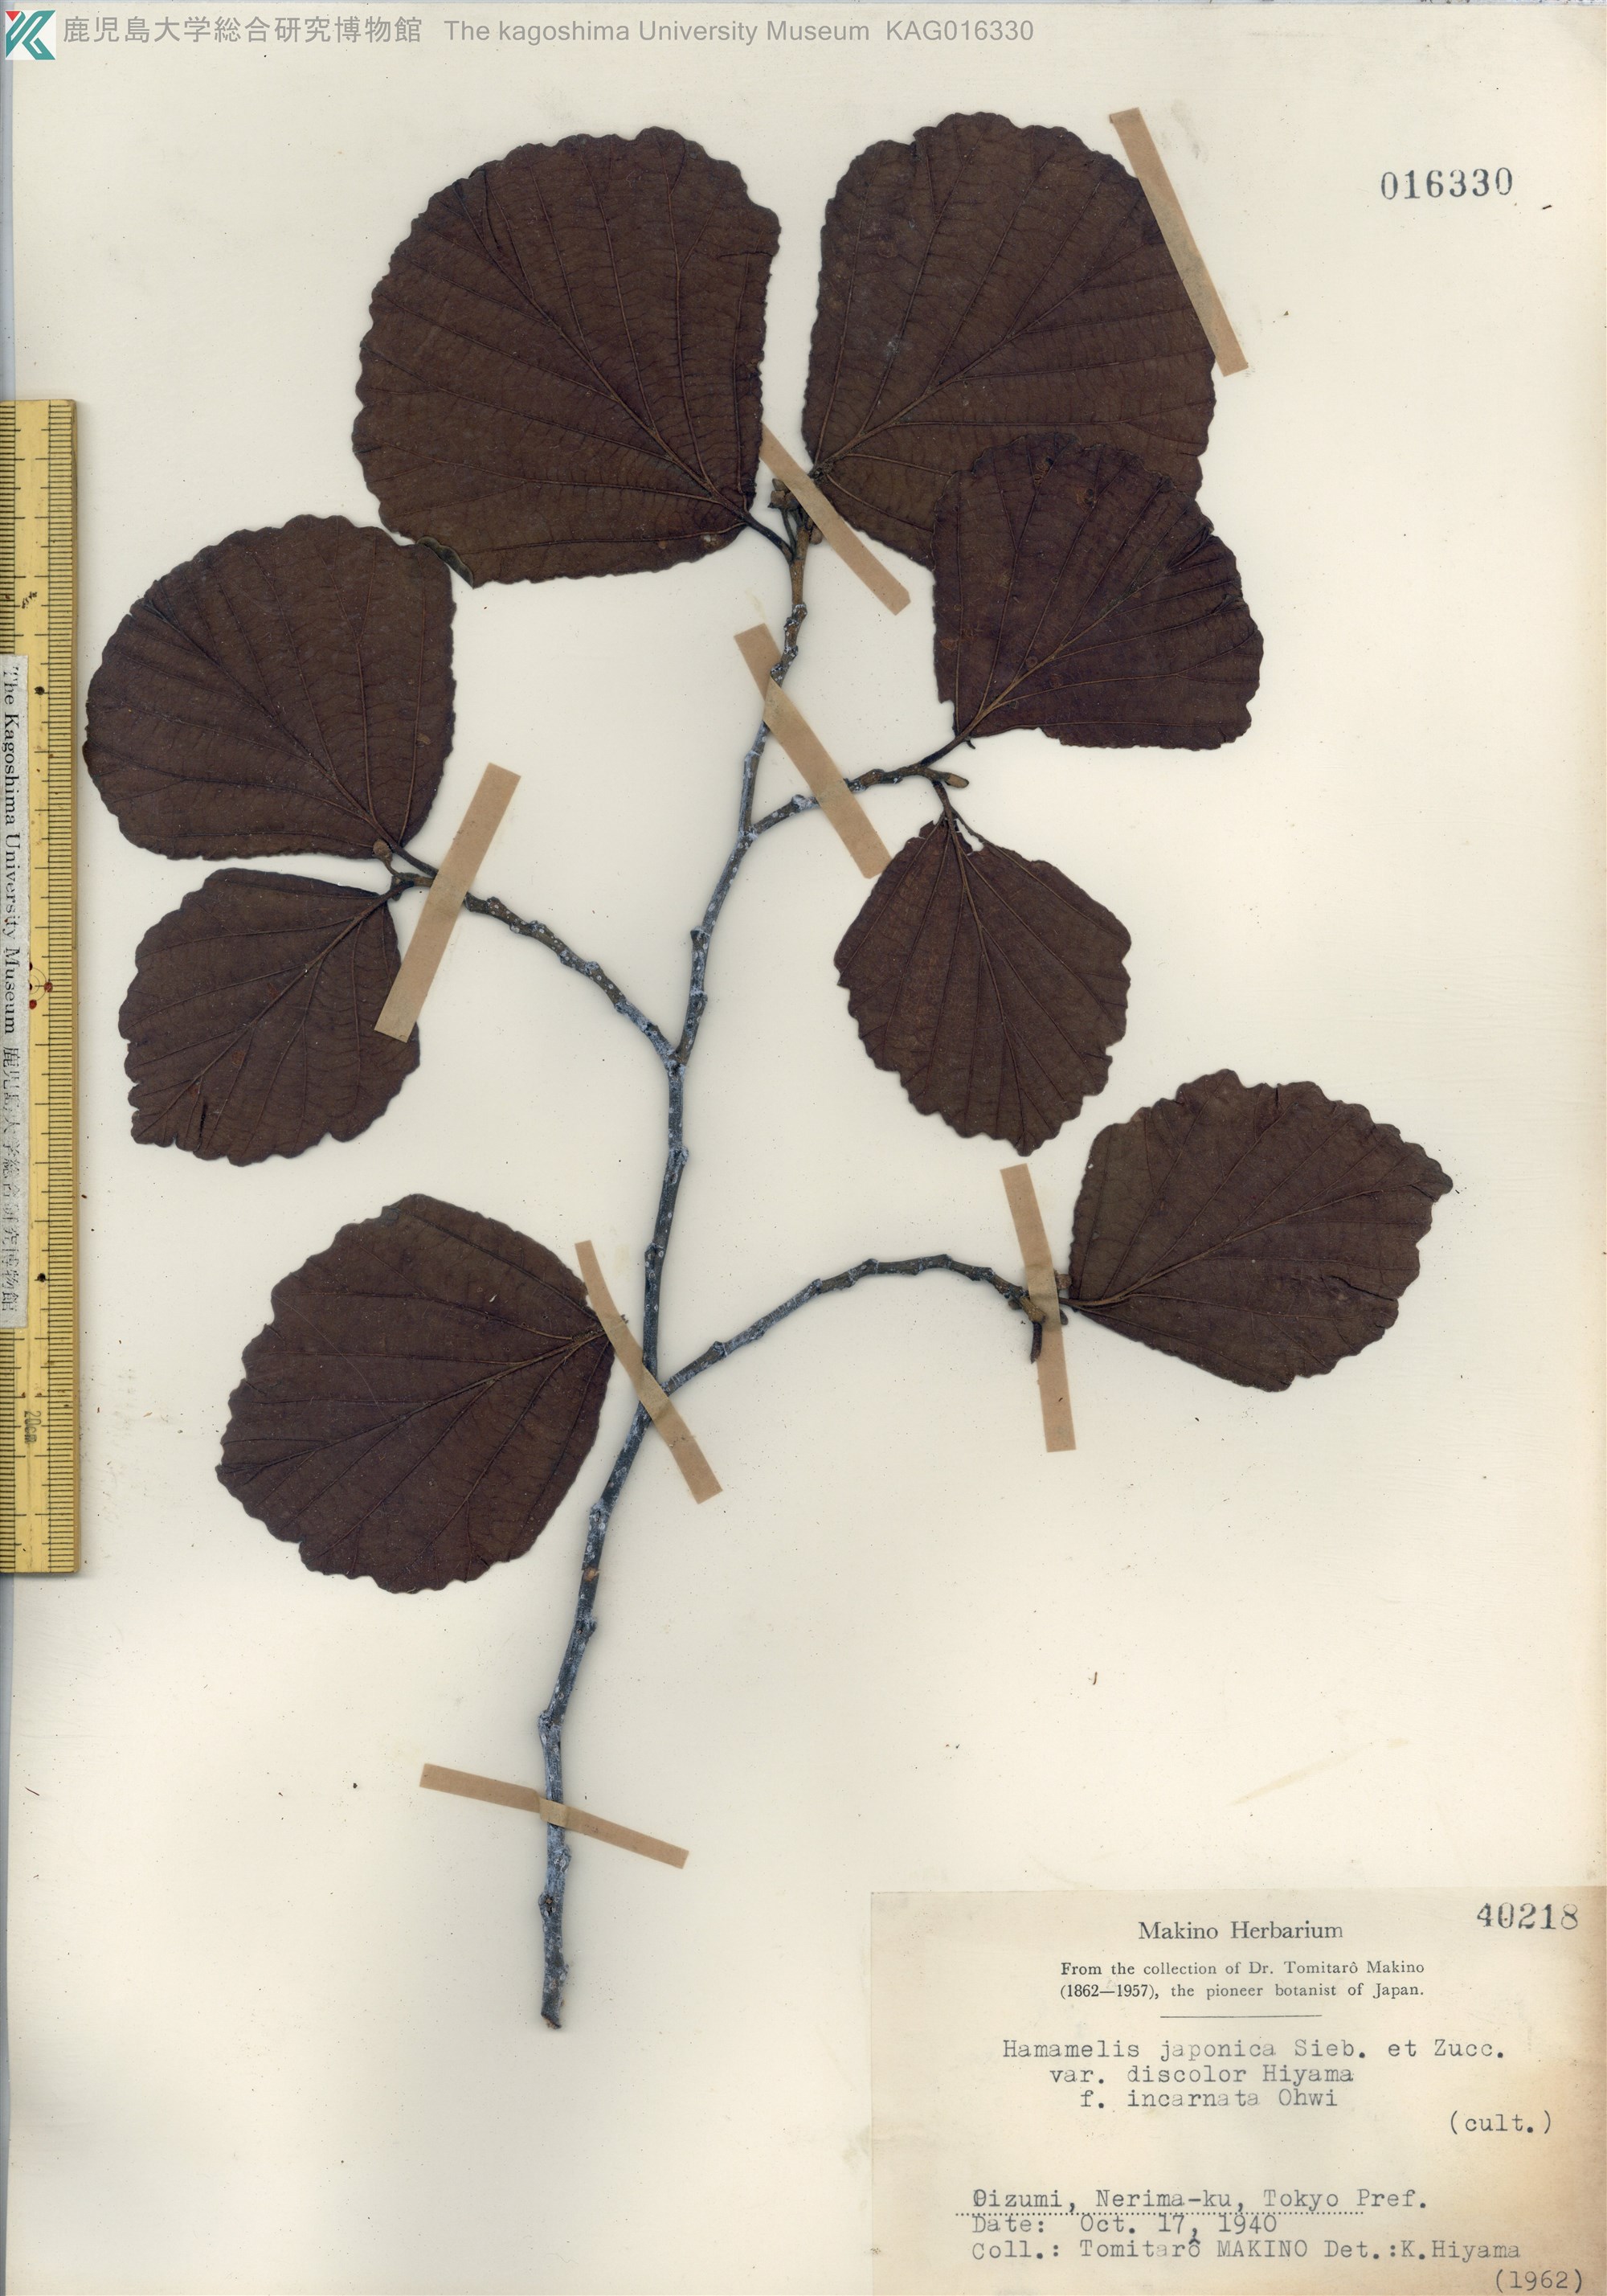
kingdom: Plantae
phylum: Tracheophyta
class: Magnoliopsida
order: Saxifragales
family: Hamamelidaceae
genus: Hamamelis
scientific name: Hamamelis japonica
